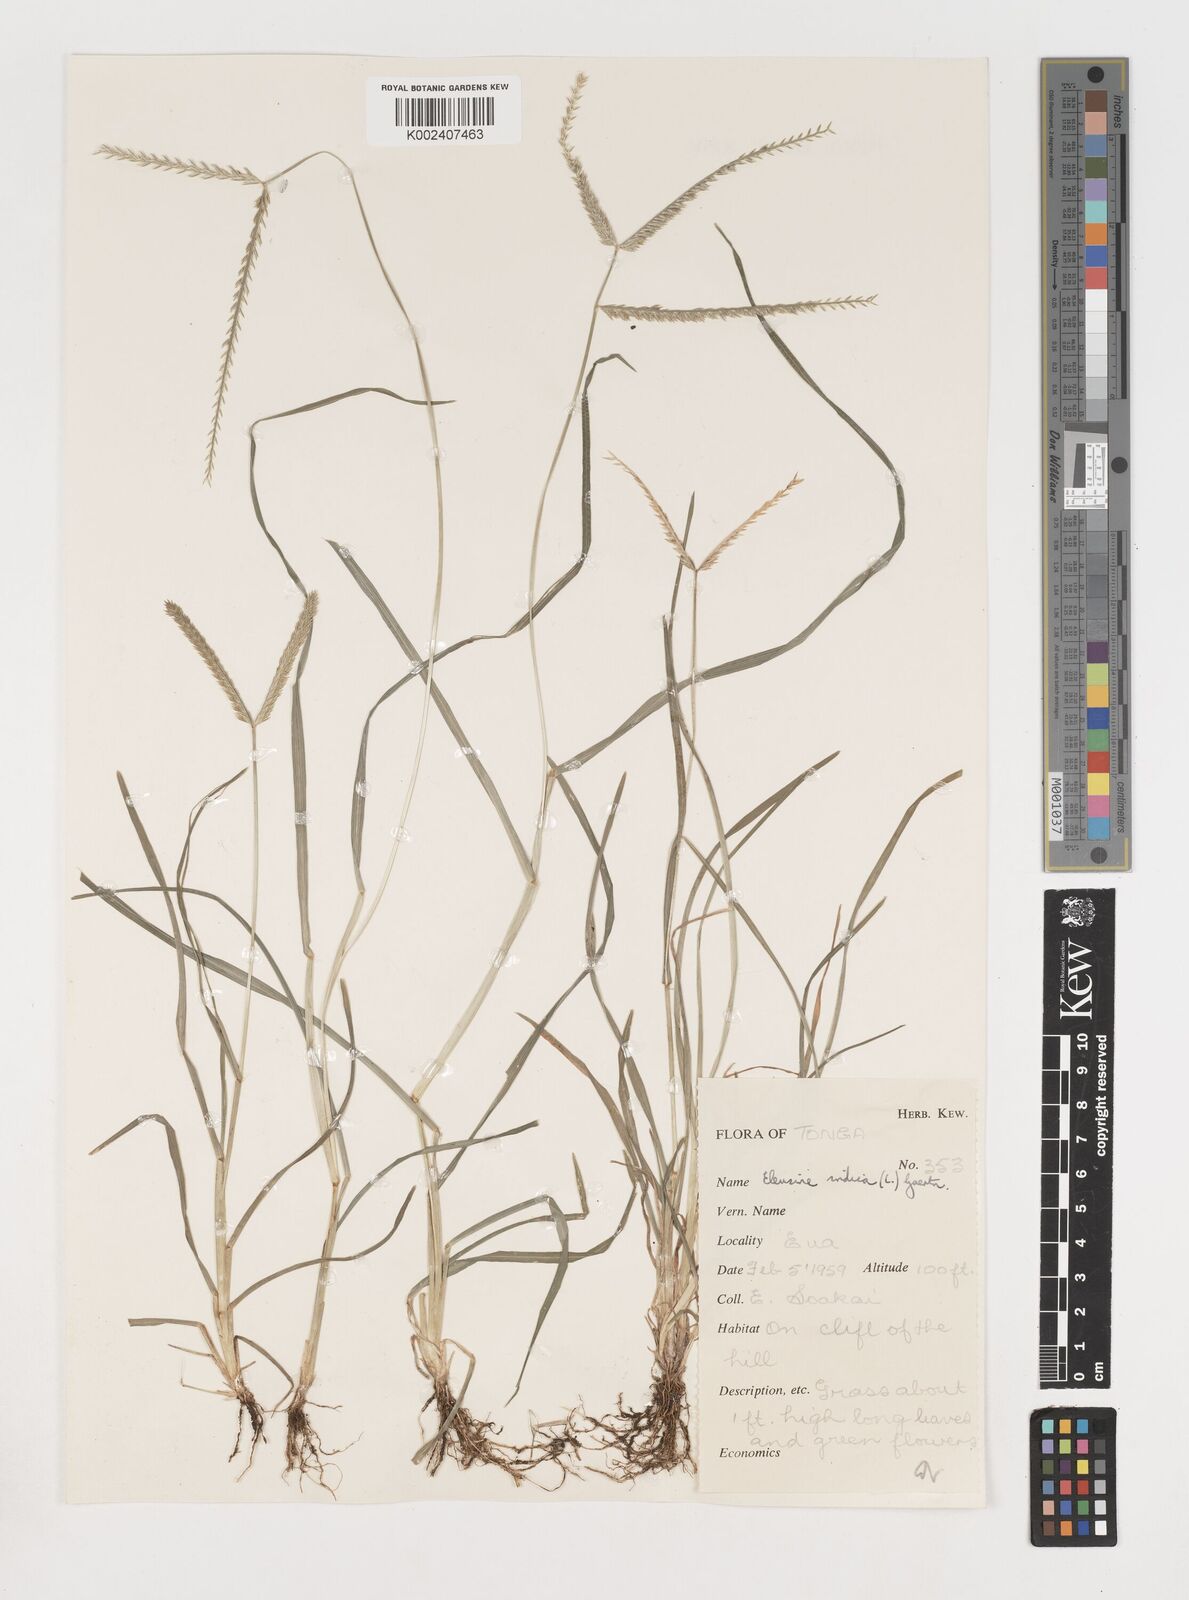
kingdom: Plantae
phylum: Tracheophyta
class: Liliopsida
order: Poales
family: Poaceae
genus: Eleusine
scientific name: Eleusine indica
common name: Yard-grass
